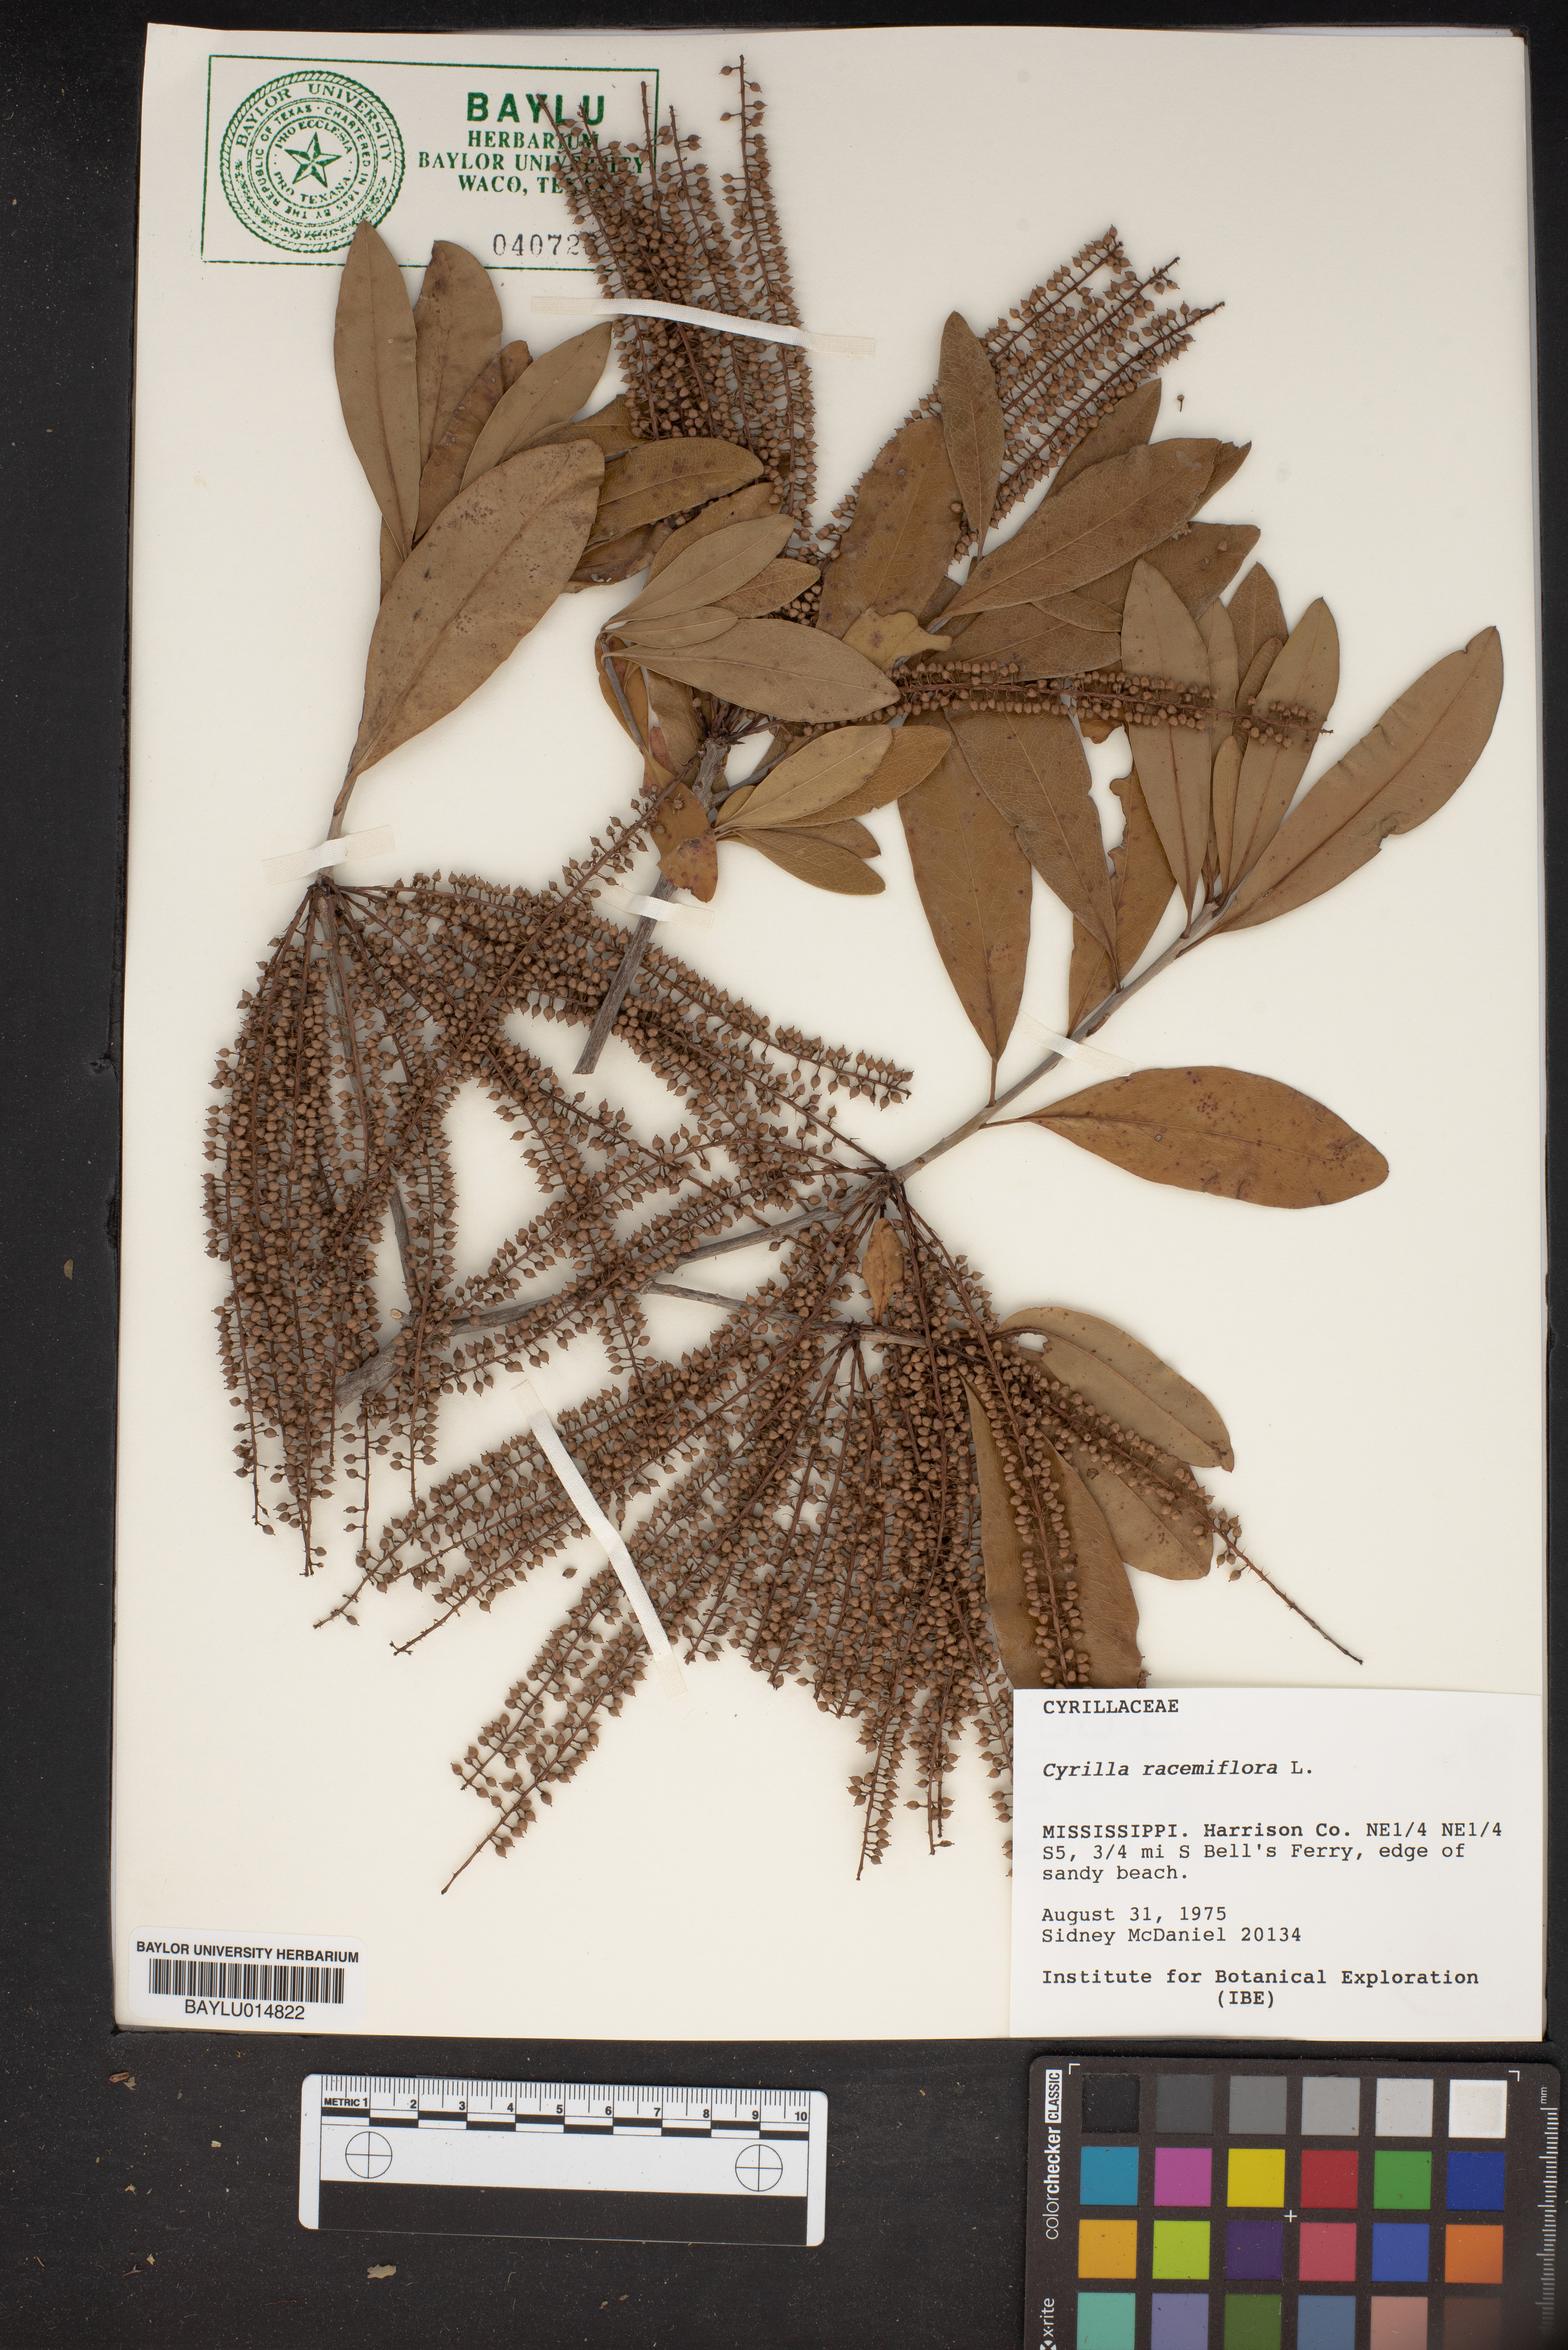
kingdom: Plantae
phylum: Tracheophyta
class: Magnoliopsida
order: Ericales
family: Cyrillaceae
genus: Cyrilla
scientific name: Cyrilla racemiflora
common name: Black titi
